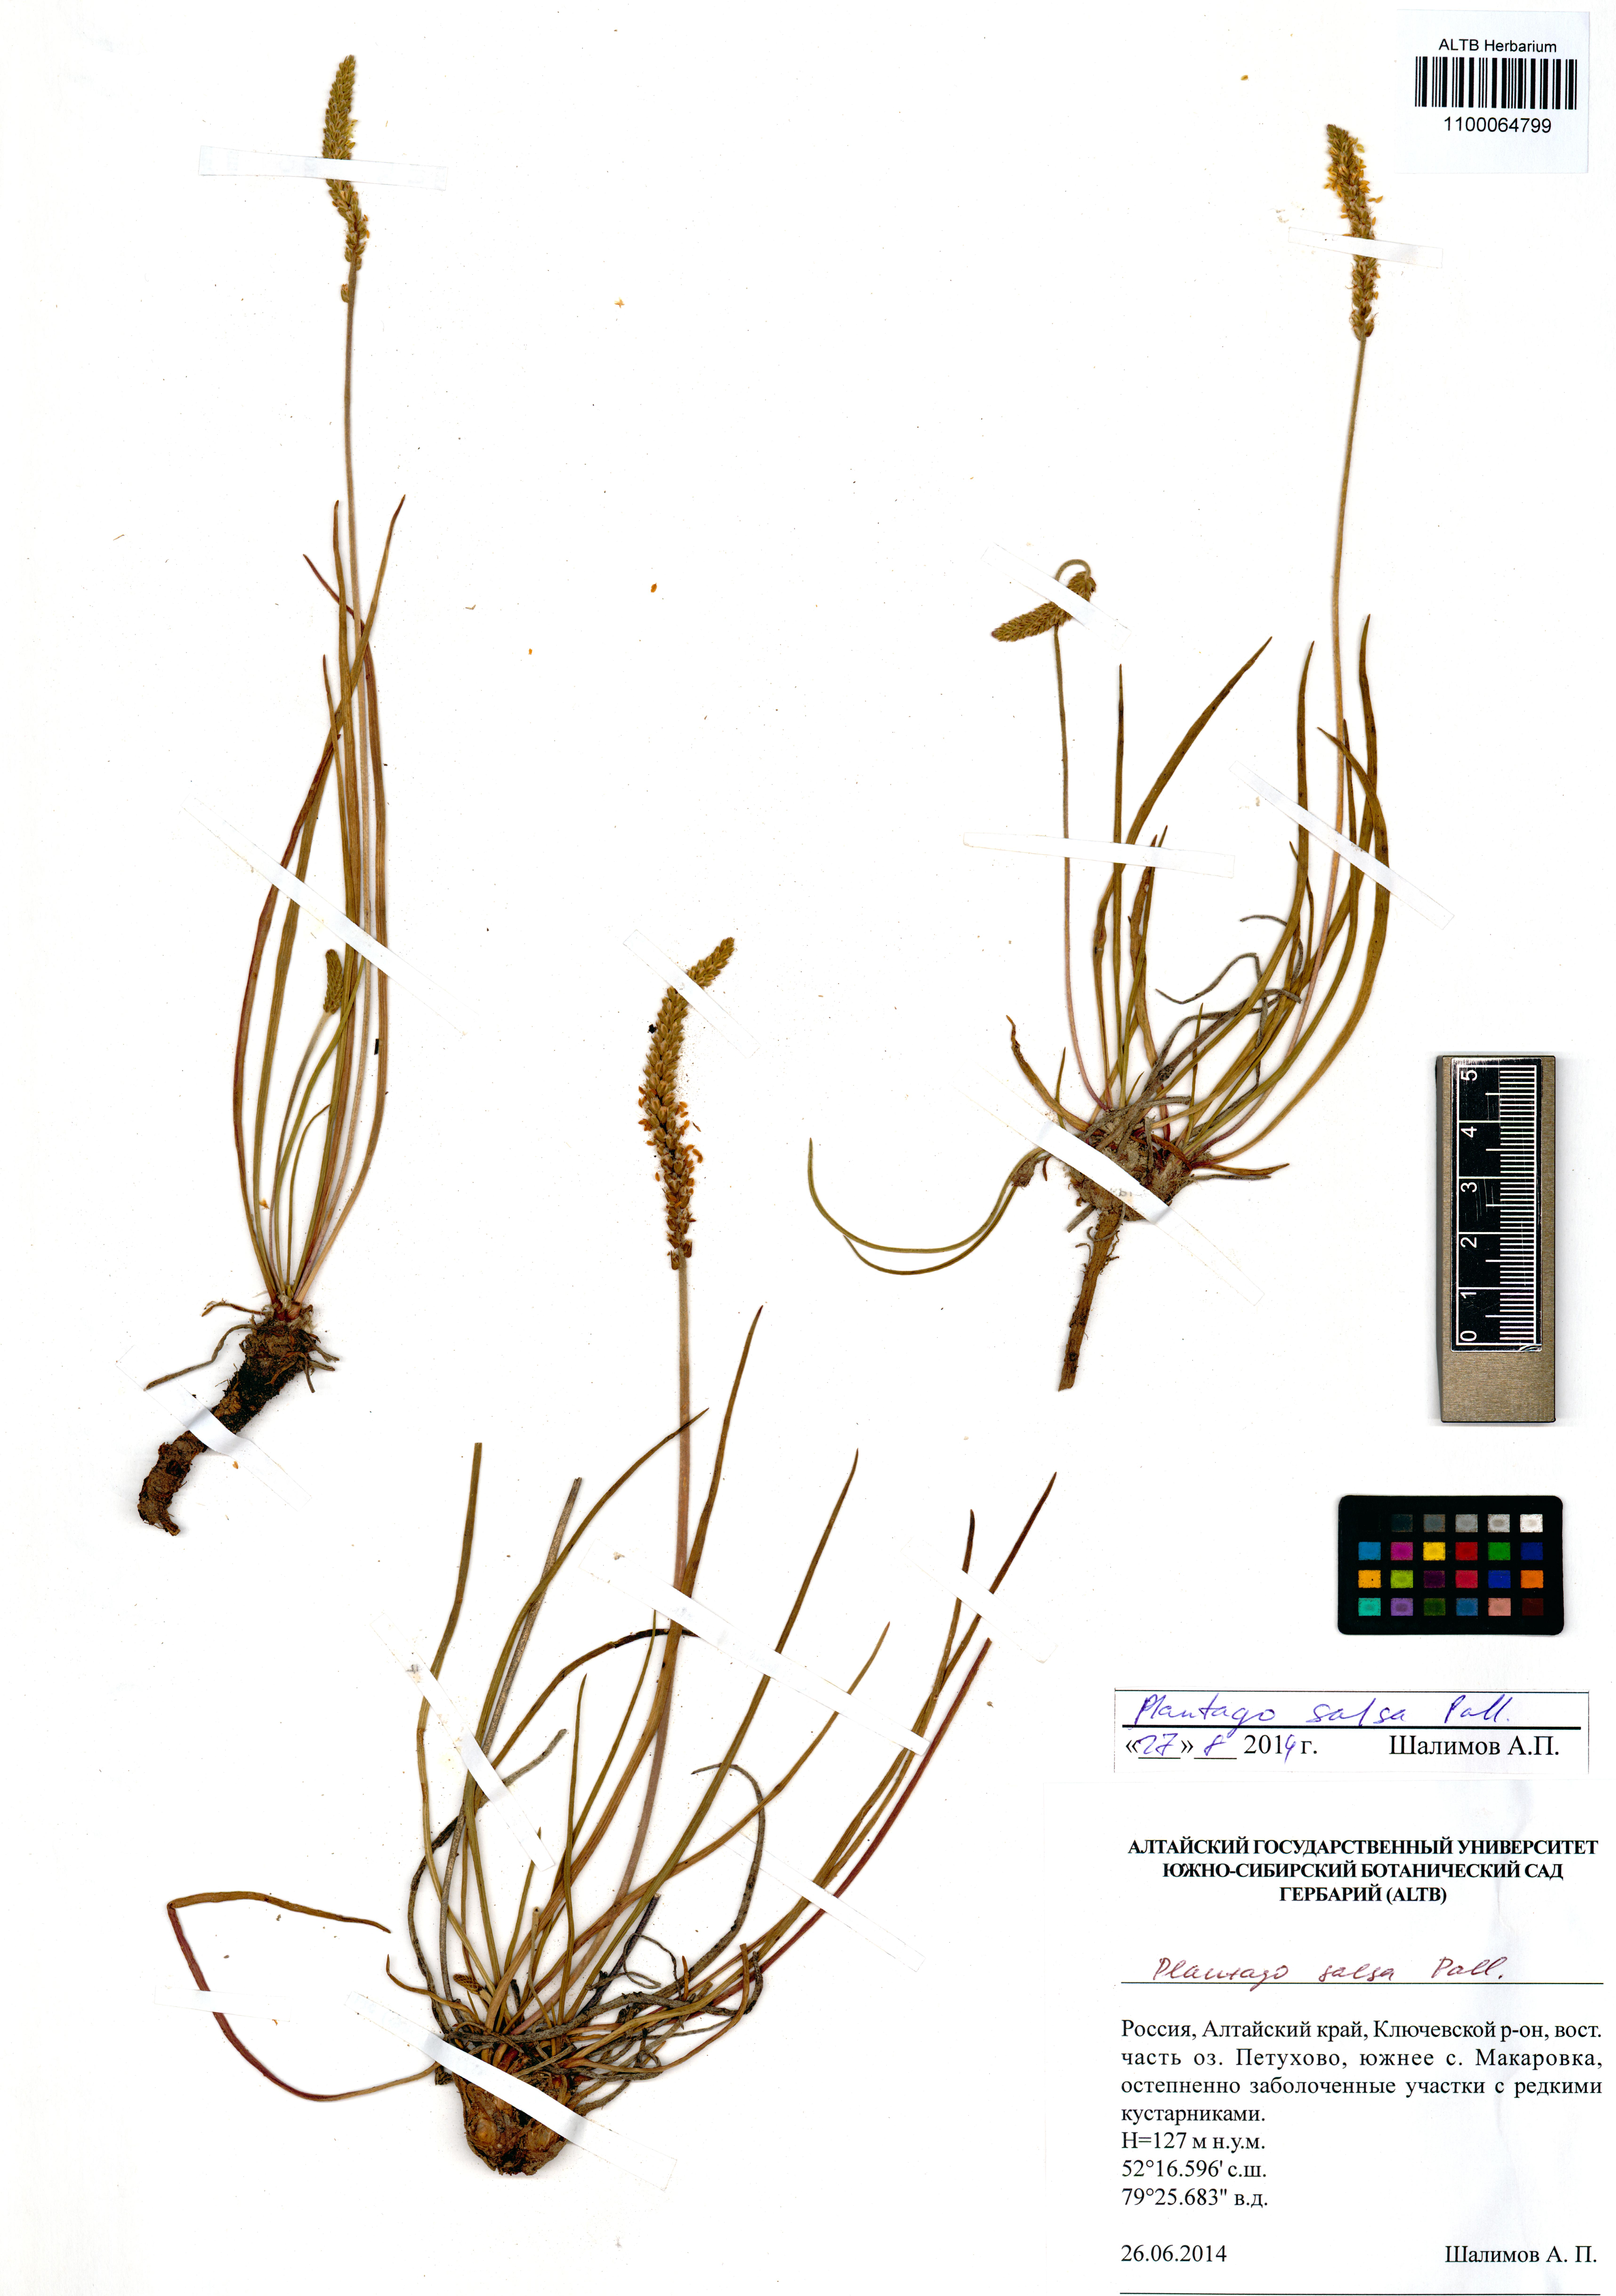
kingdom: Plantae
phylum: Tracheophyta
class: Magnoliopsida
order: Lamiales
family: Plantaginaceae
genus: Plantago
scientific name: Plantago salsa
